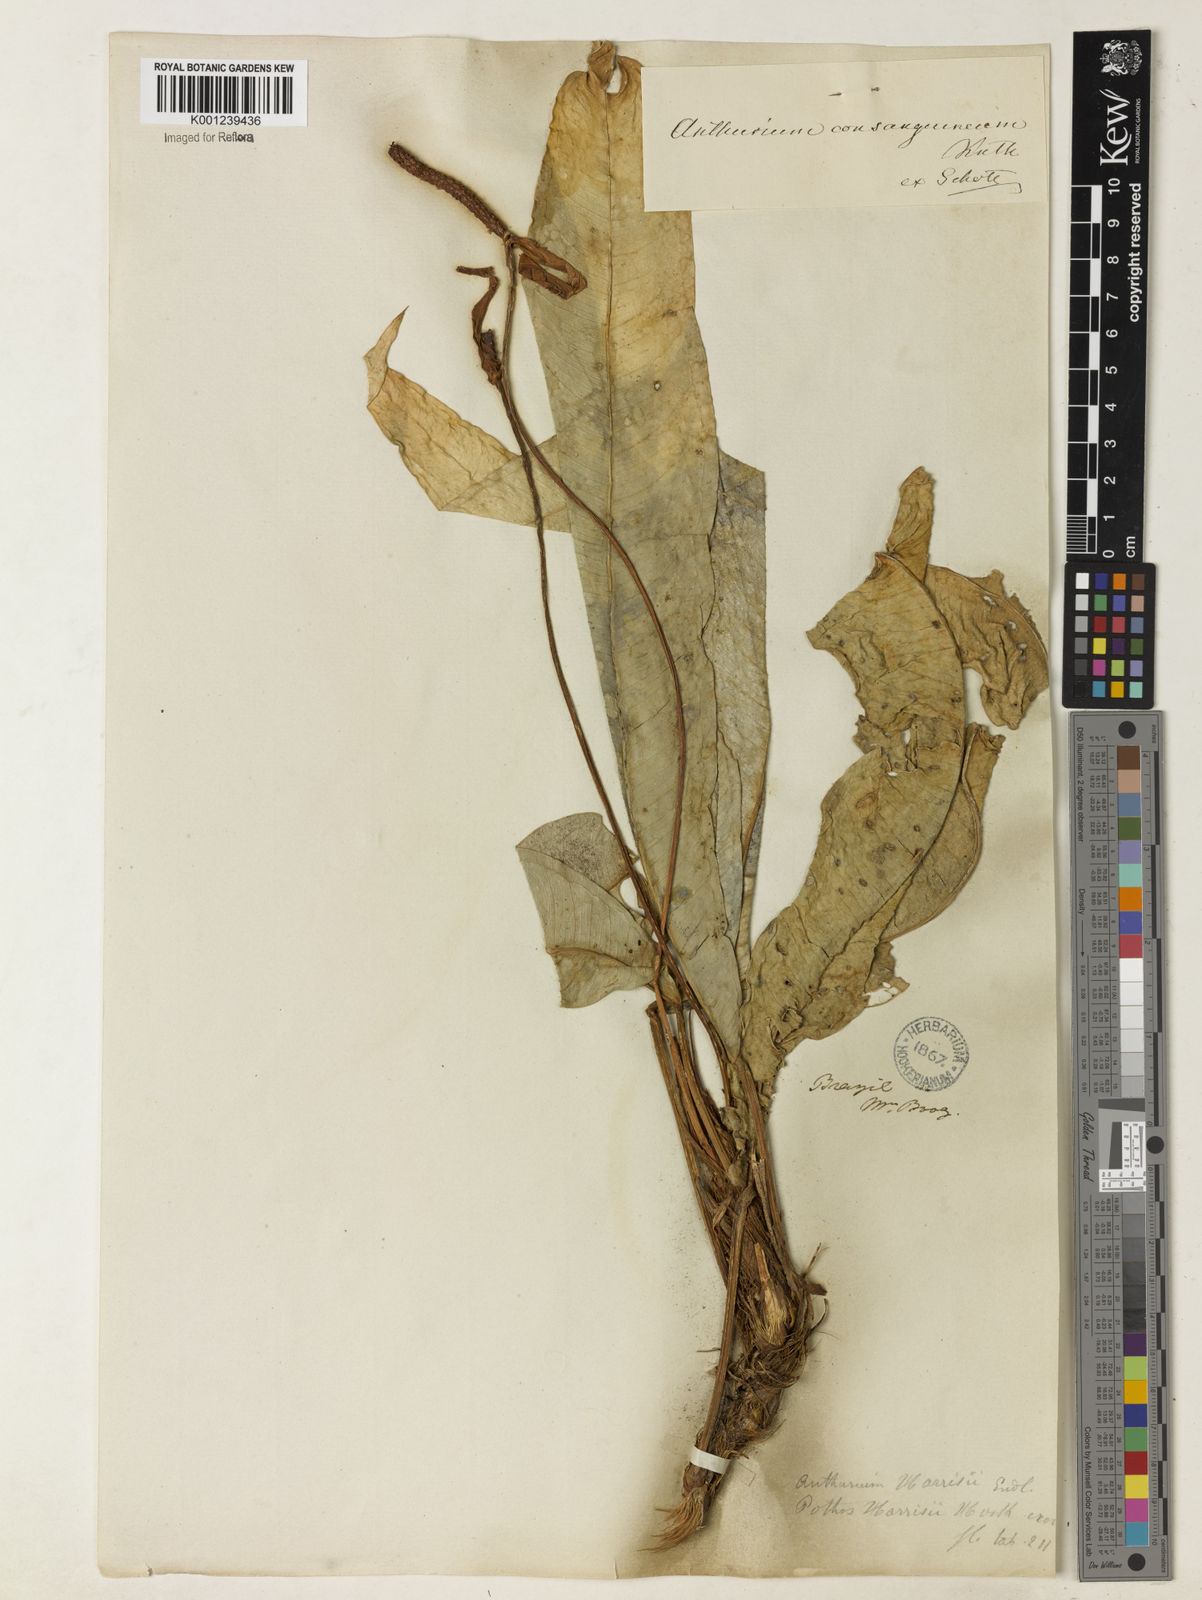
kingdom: Plantae
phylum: Tracheophyta
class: Liliopsida
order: Alismatales
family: Araceae
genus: Anthurium
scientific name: Anthurium harrisii
